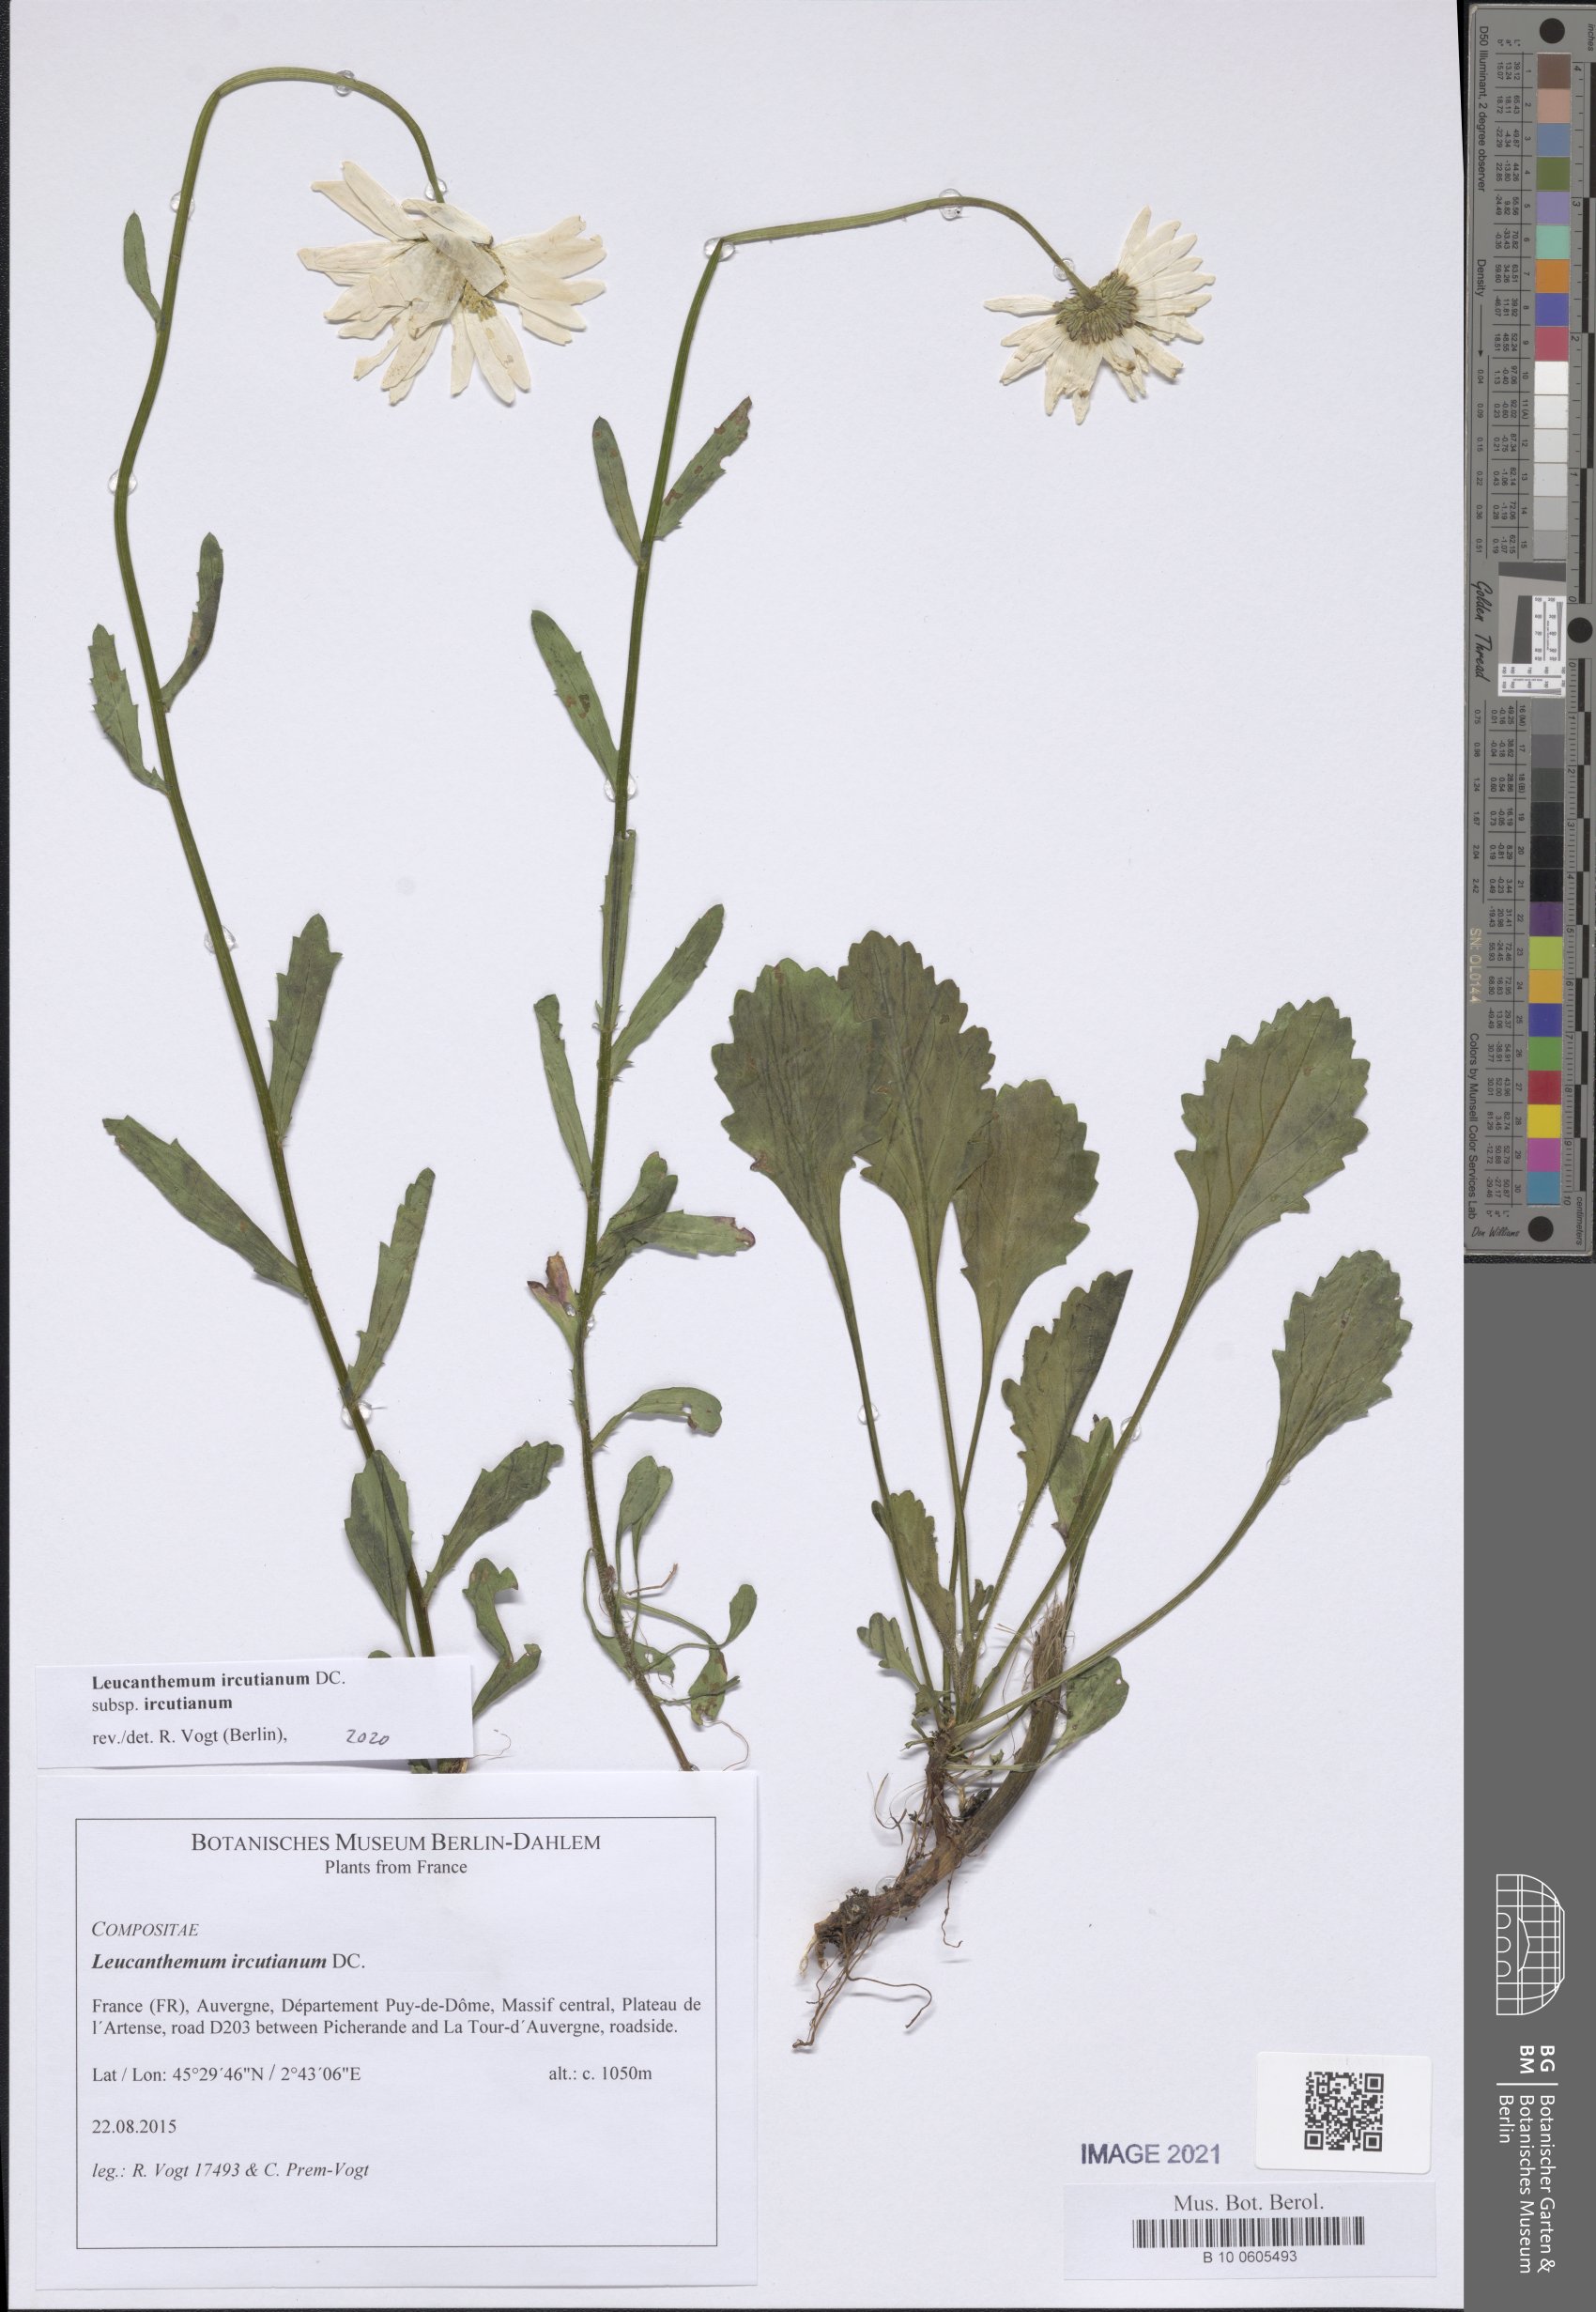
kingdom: Plantae
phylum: Tracheophyta
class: Magnoliopsida
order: Asterales
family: Asteraceae
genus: Leucanthemum
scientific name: Leucanthemum ircutianum
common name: Daisy
